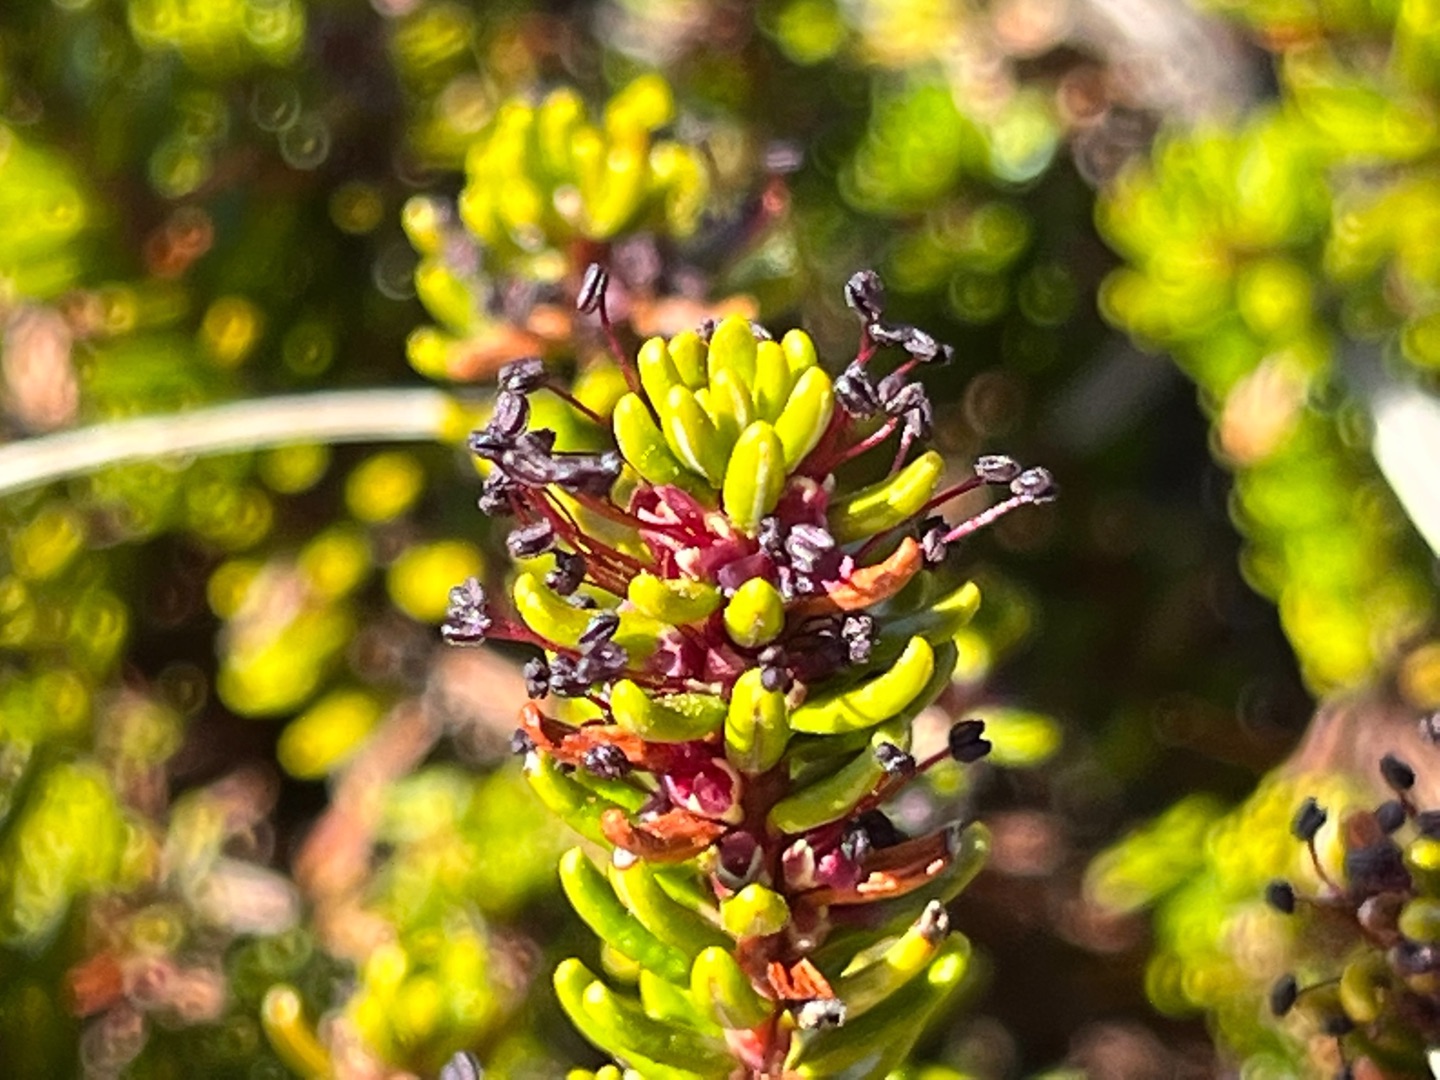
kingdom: Plantae
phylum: Tracheophyta
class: Magnoliopsida
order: Ericales
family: Ericaceae
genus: Empetrum
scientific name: Empetrum nigrum
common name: Revling
